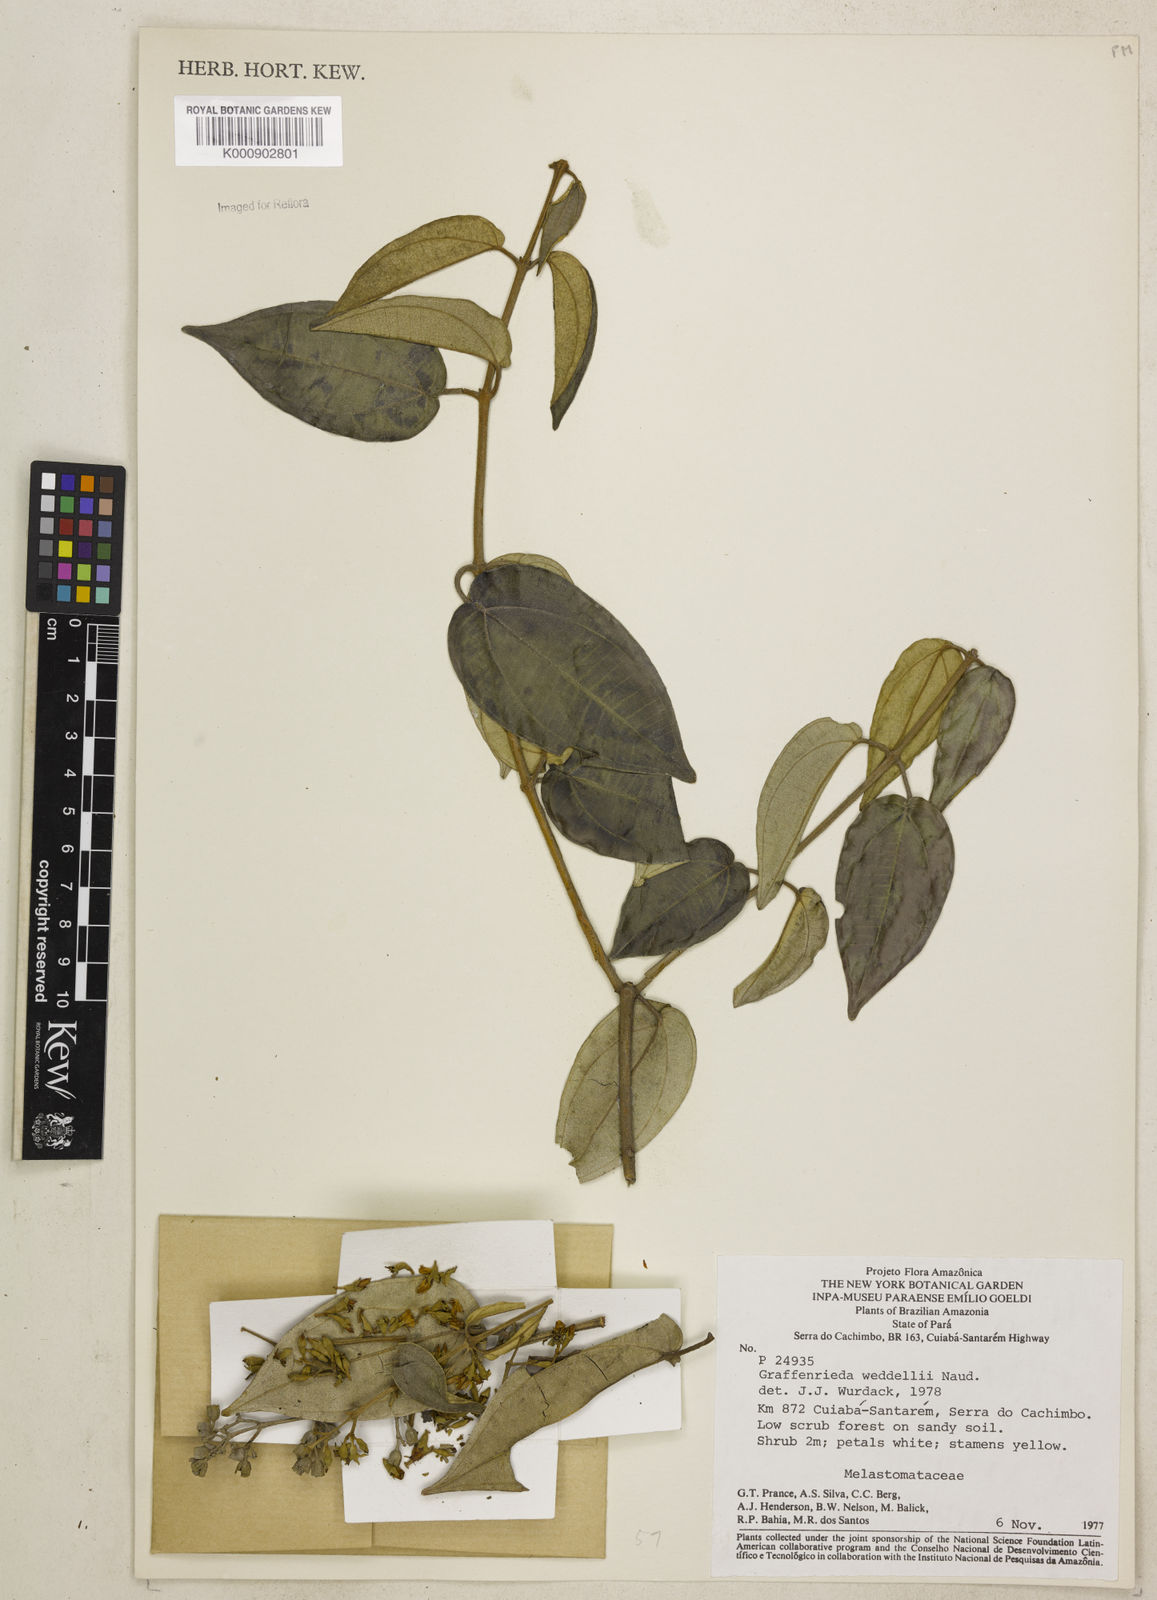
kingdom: Plantae
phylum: Tracheophyta
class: Magnoliopsida
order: Myrtales
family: Melastomataceae
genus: Graffenrieda
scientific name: Graffenrieda weddellii
